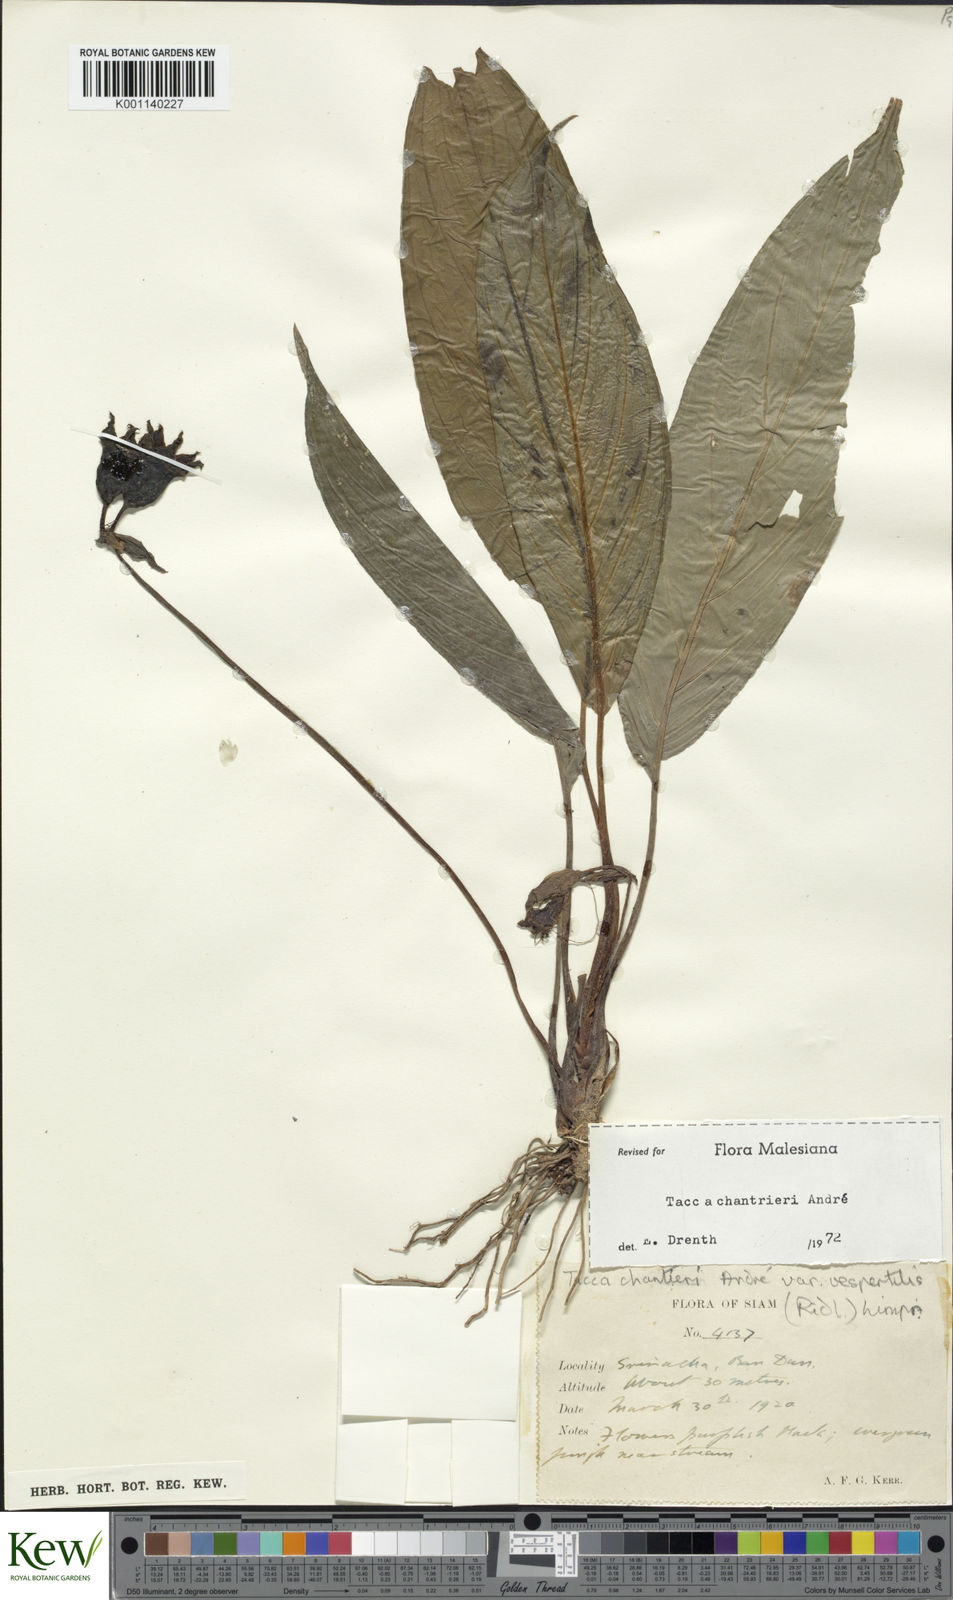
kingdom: Plantae
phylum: Tracheophyta
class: Liliopsida
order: Dioscoreales
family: Dioscoreaceae
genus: Tacca
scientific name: Tacca
